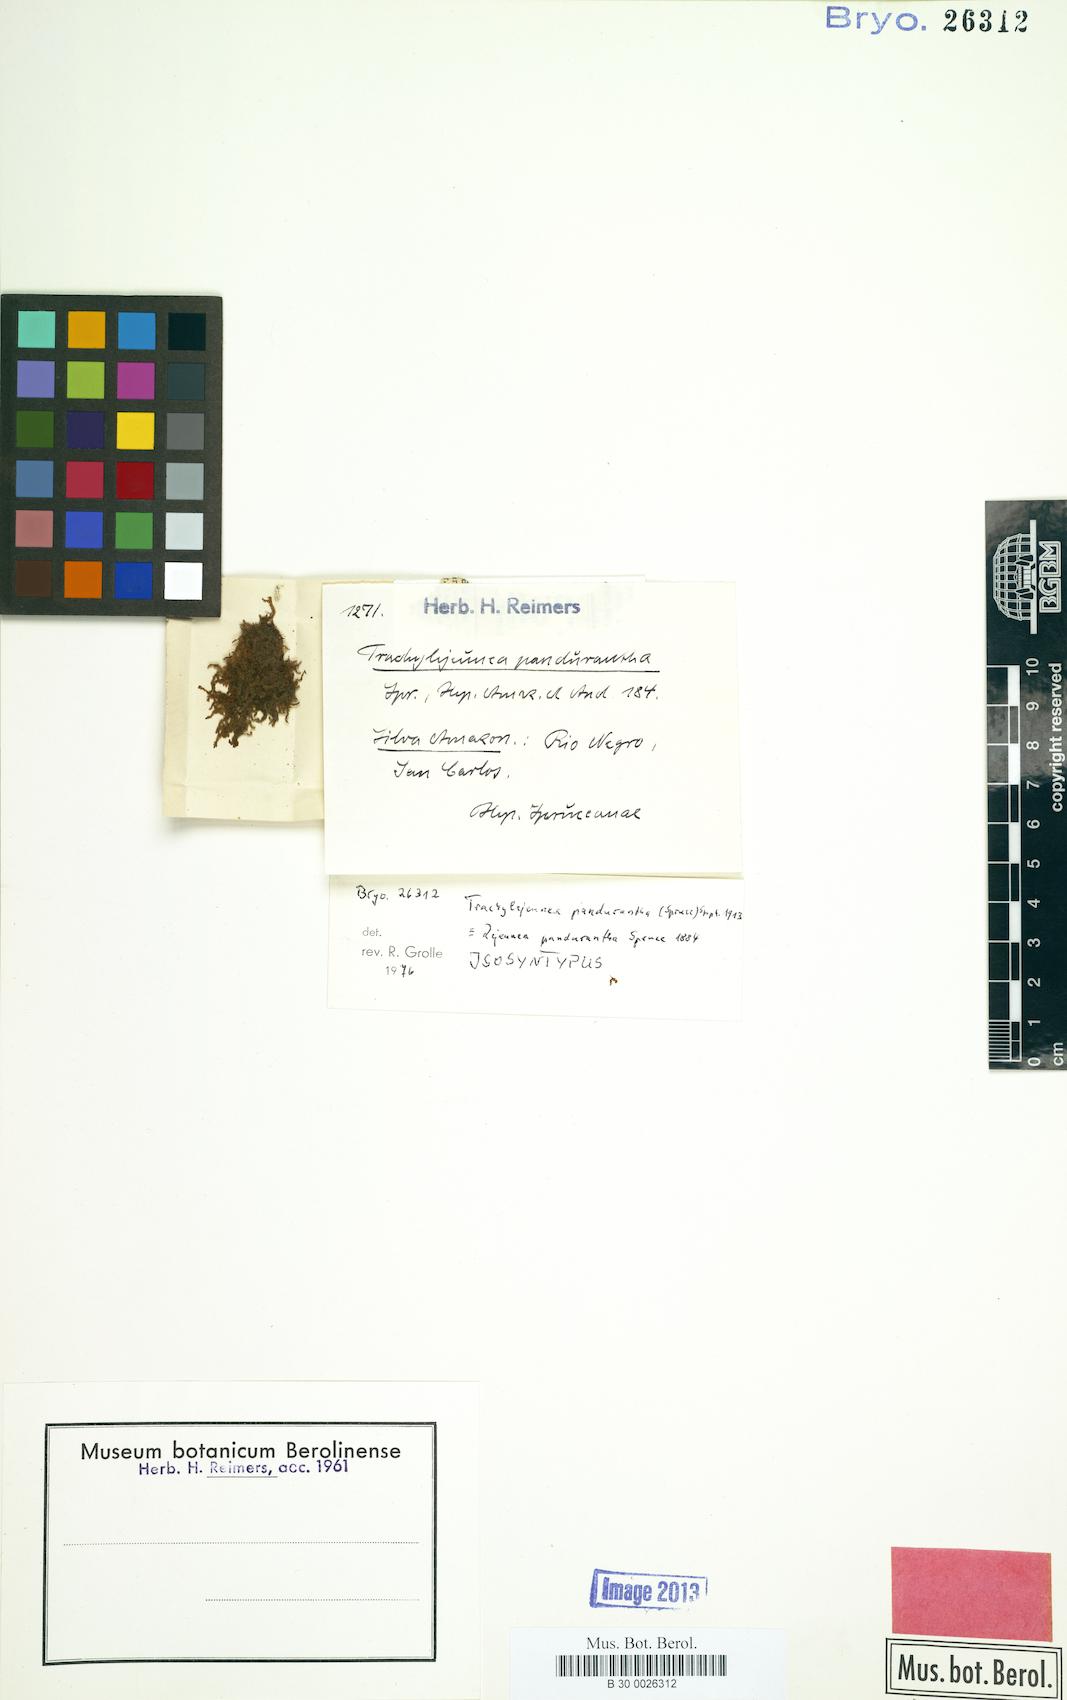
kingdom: Plantae
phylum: Marchantiophyta
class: Jungermanniopsida
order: Porellales
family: Lejeuneaceae
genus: Xylolejeunea
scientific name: Xylolejeunea crenata
